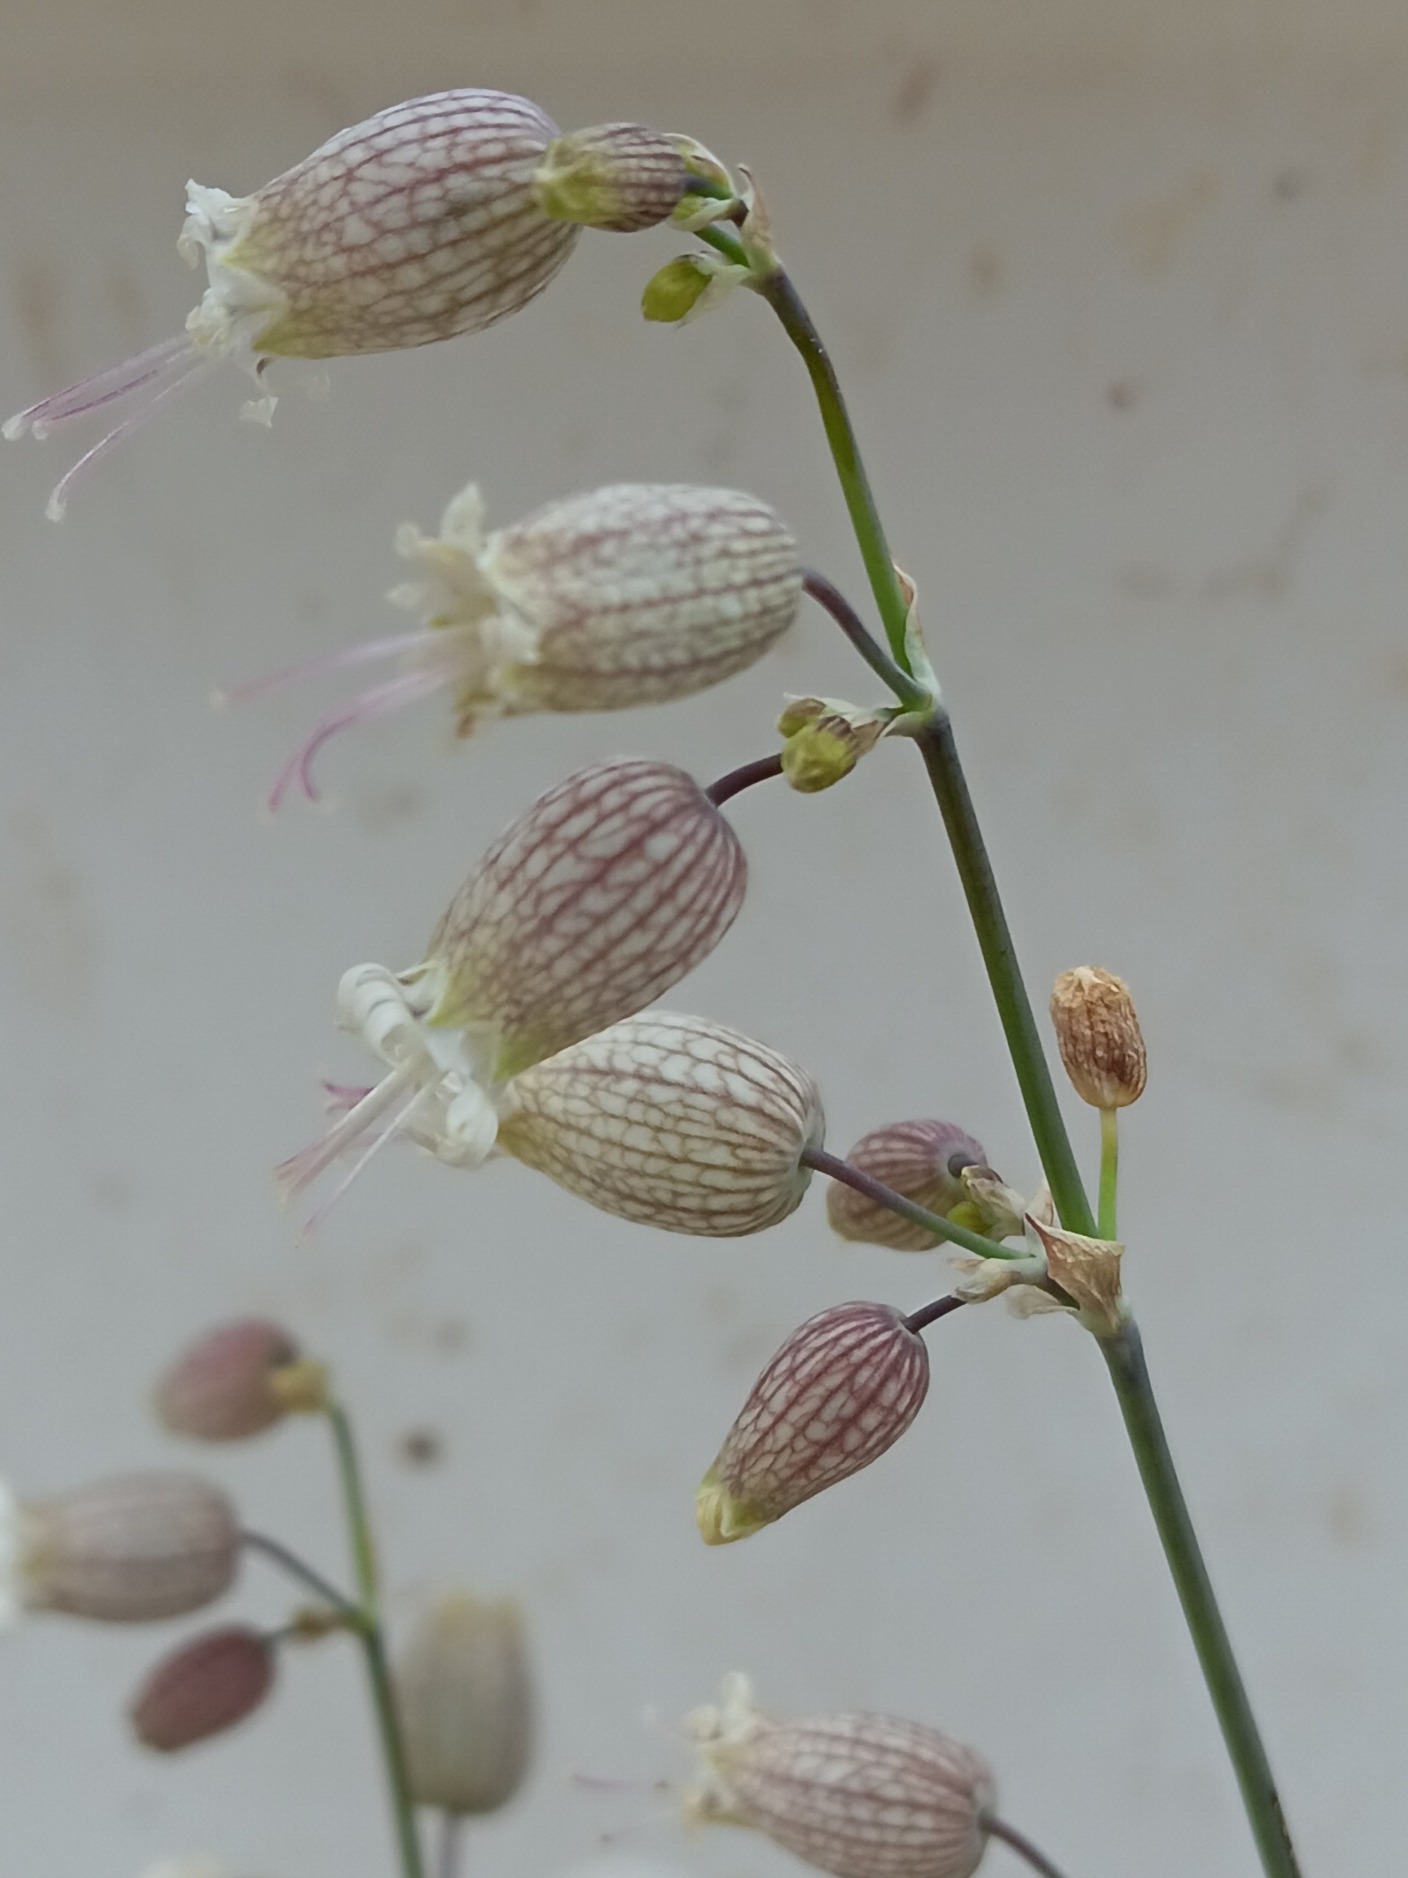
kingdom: Plantae
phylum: Tracheophyta
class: Magnoliopsida
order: Caryophyllales
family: Caryophyllaceae
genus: Silene
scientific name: Silene vulgaris
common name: Blæresmælde
